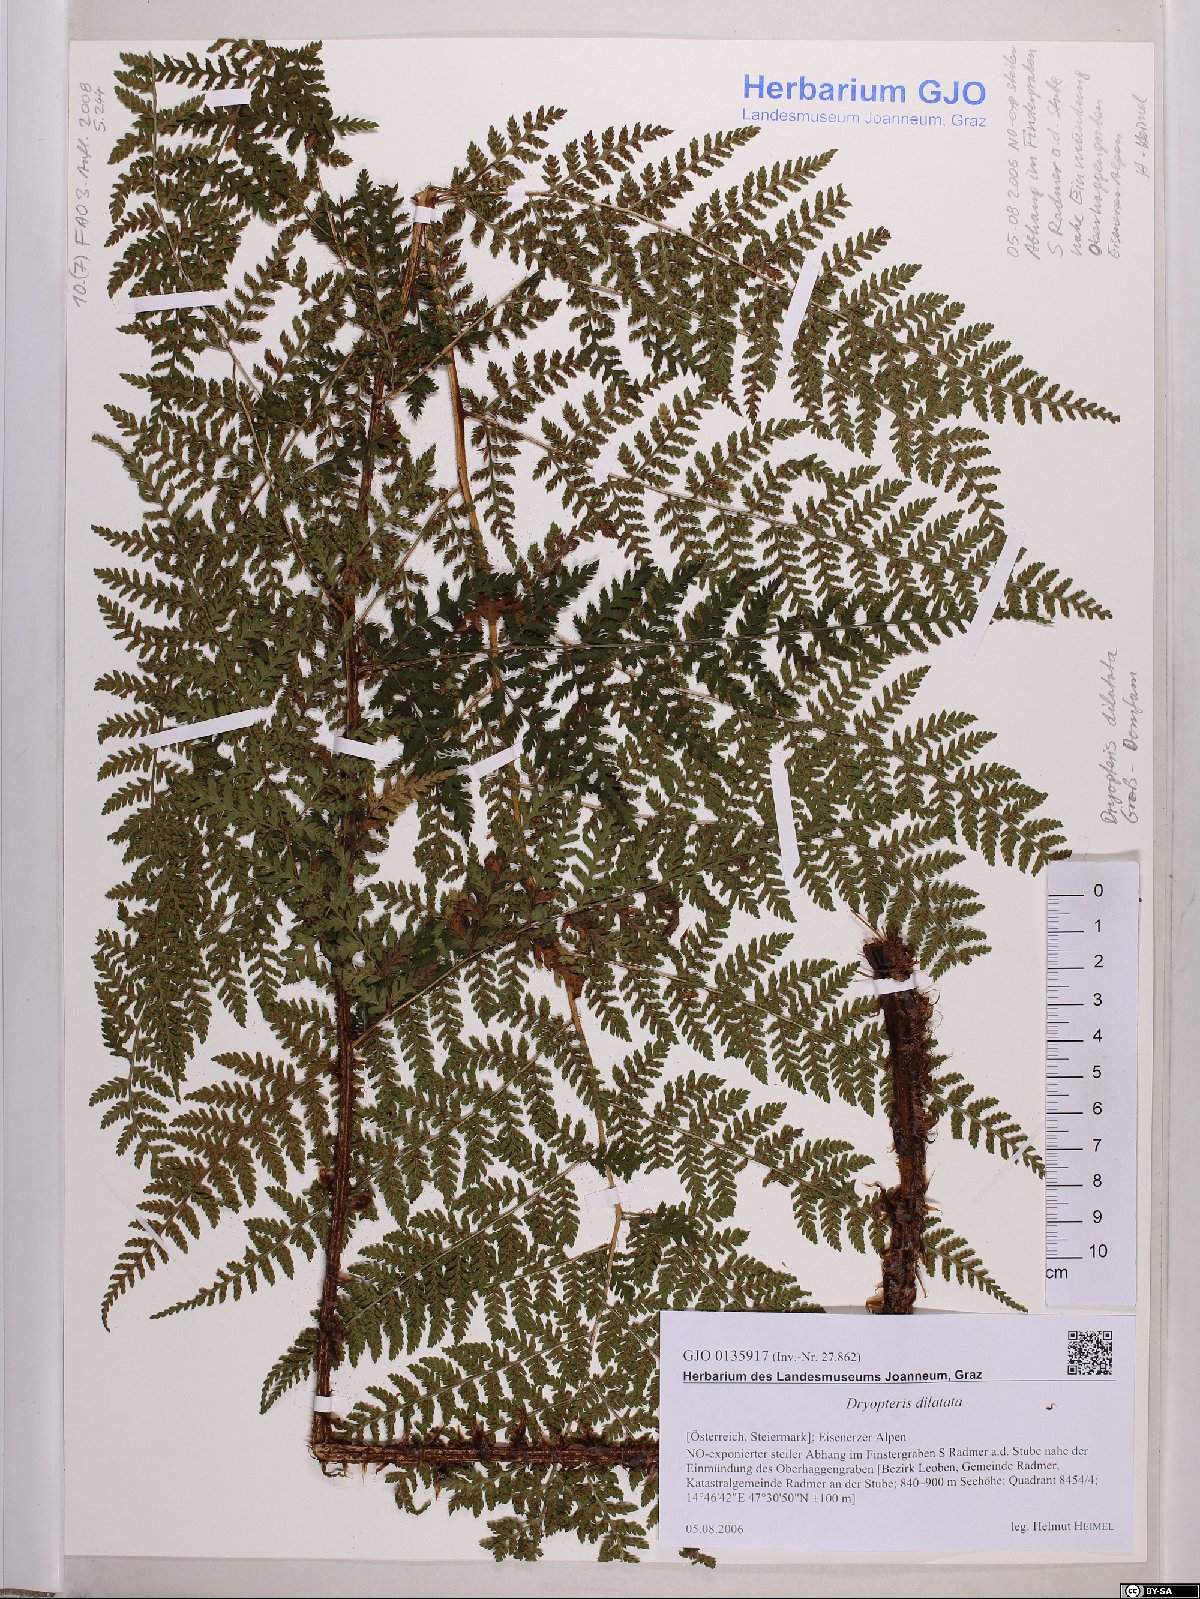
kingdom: Plantae
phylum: Tracheophyta
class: Polypodiopsida
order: Polypodiales
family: Dryopteridaceae
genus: Dryopteris
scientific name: Dryopteris dilatata
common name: Broad buckler-fern
